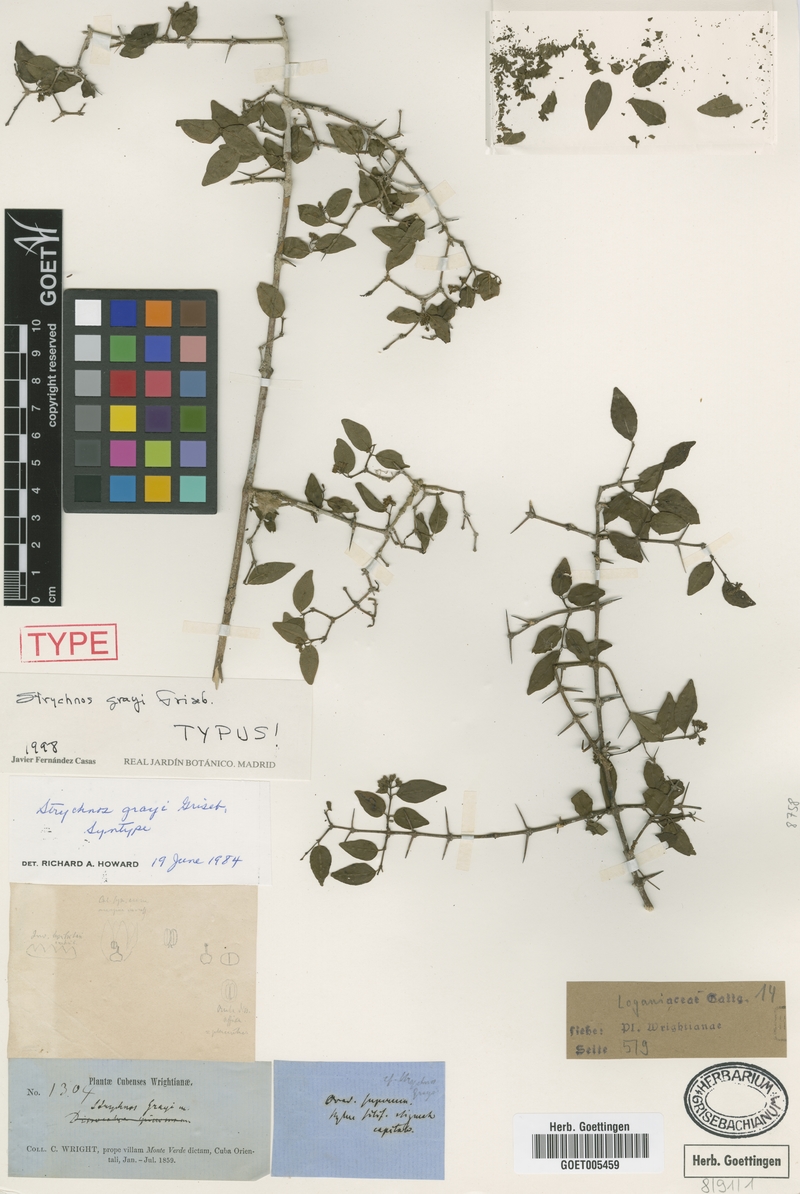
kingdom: Plantae
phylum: Tracheophyta
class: Magnoliopsida
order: Gentianales
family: Loganiaceae
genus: Strychnos
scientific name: Strychnos grayi
